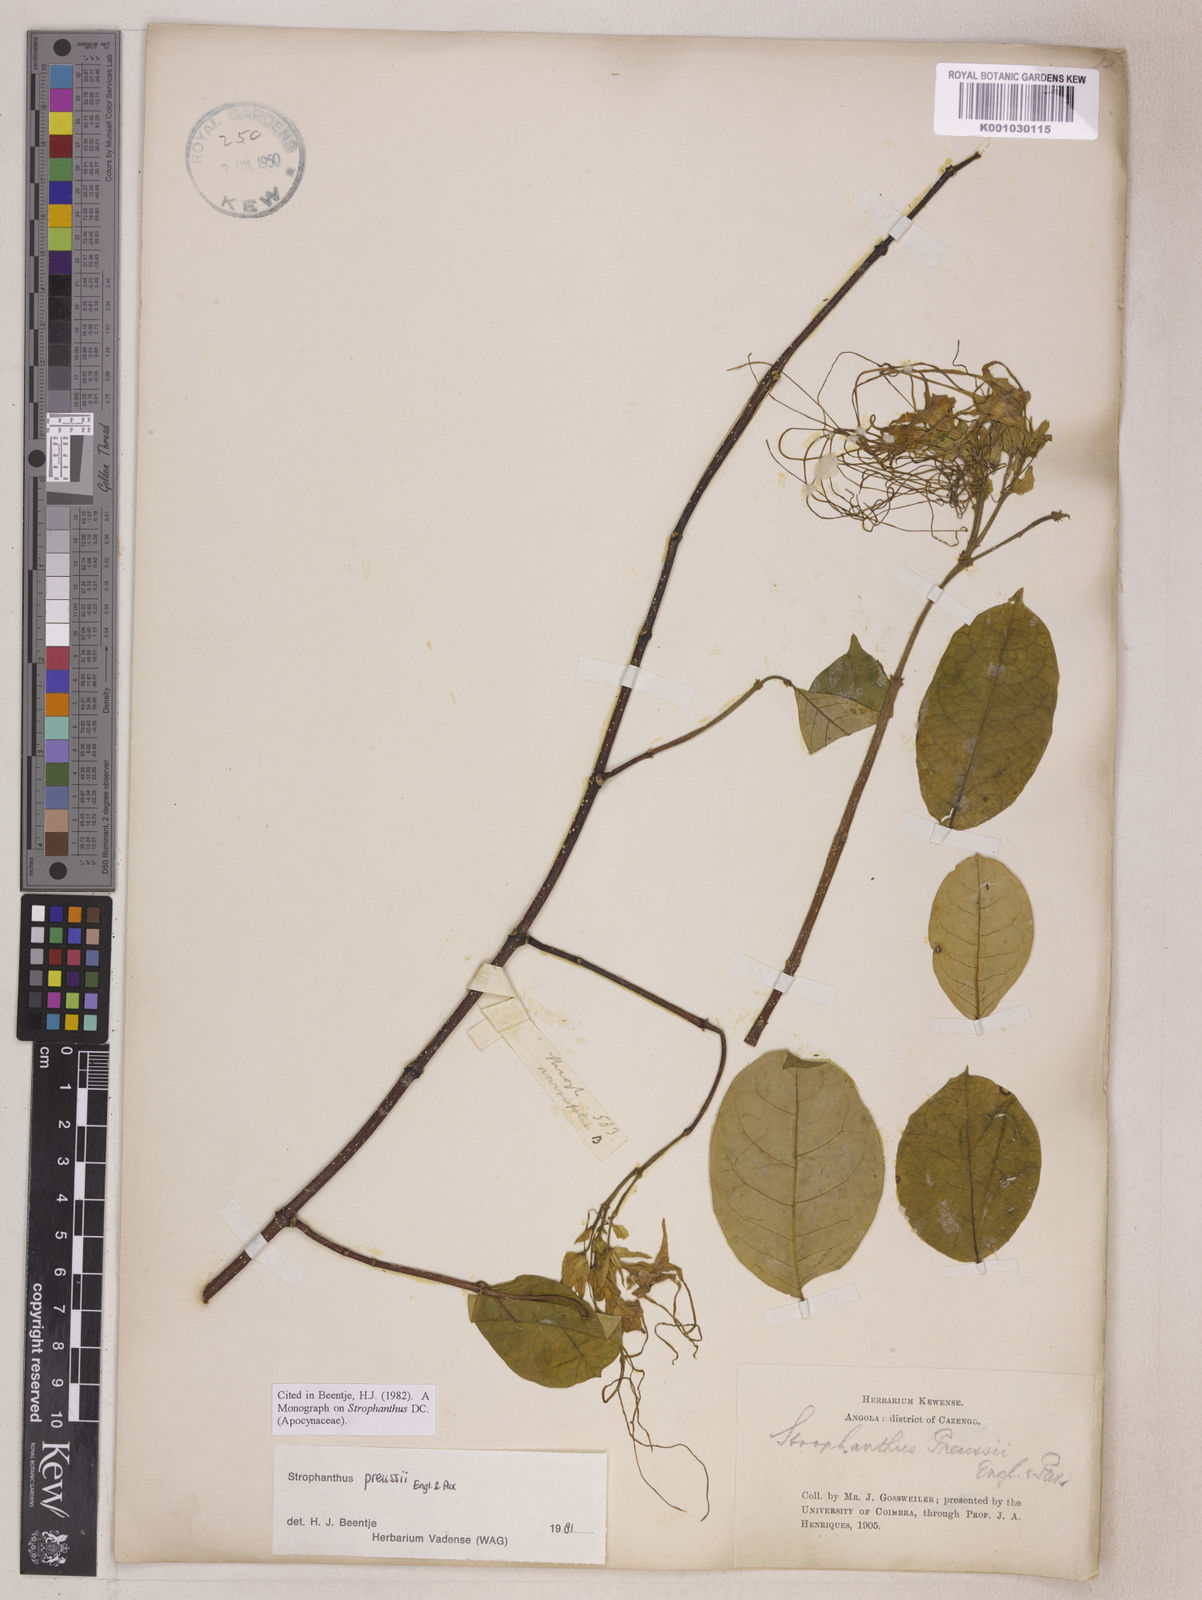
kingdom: Plantae
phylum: Tracheophyta
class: Magnoliopsida
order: Gentianales
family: Apocynaceae
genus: Strophanthus
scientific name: Strophanthus preussii
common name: Medisa-flower
